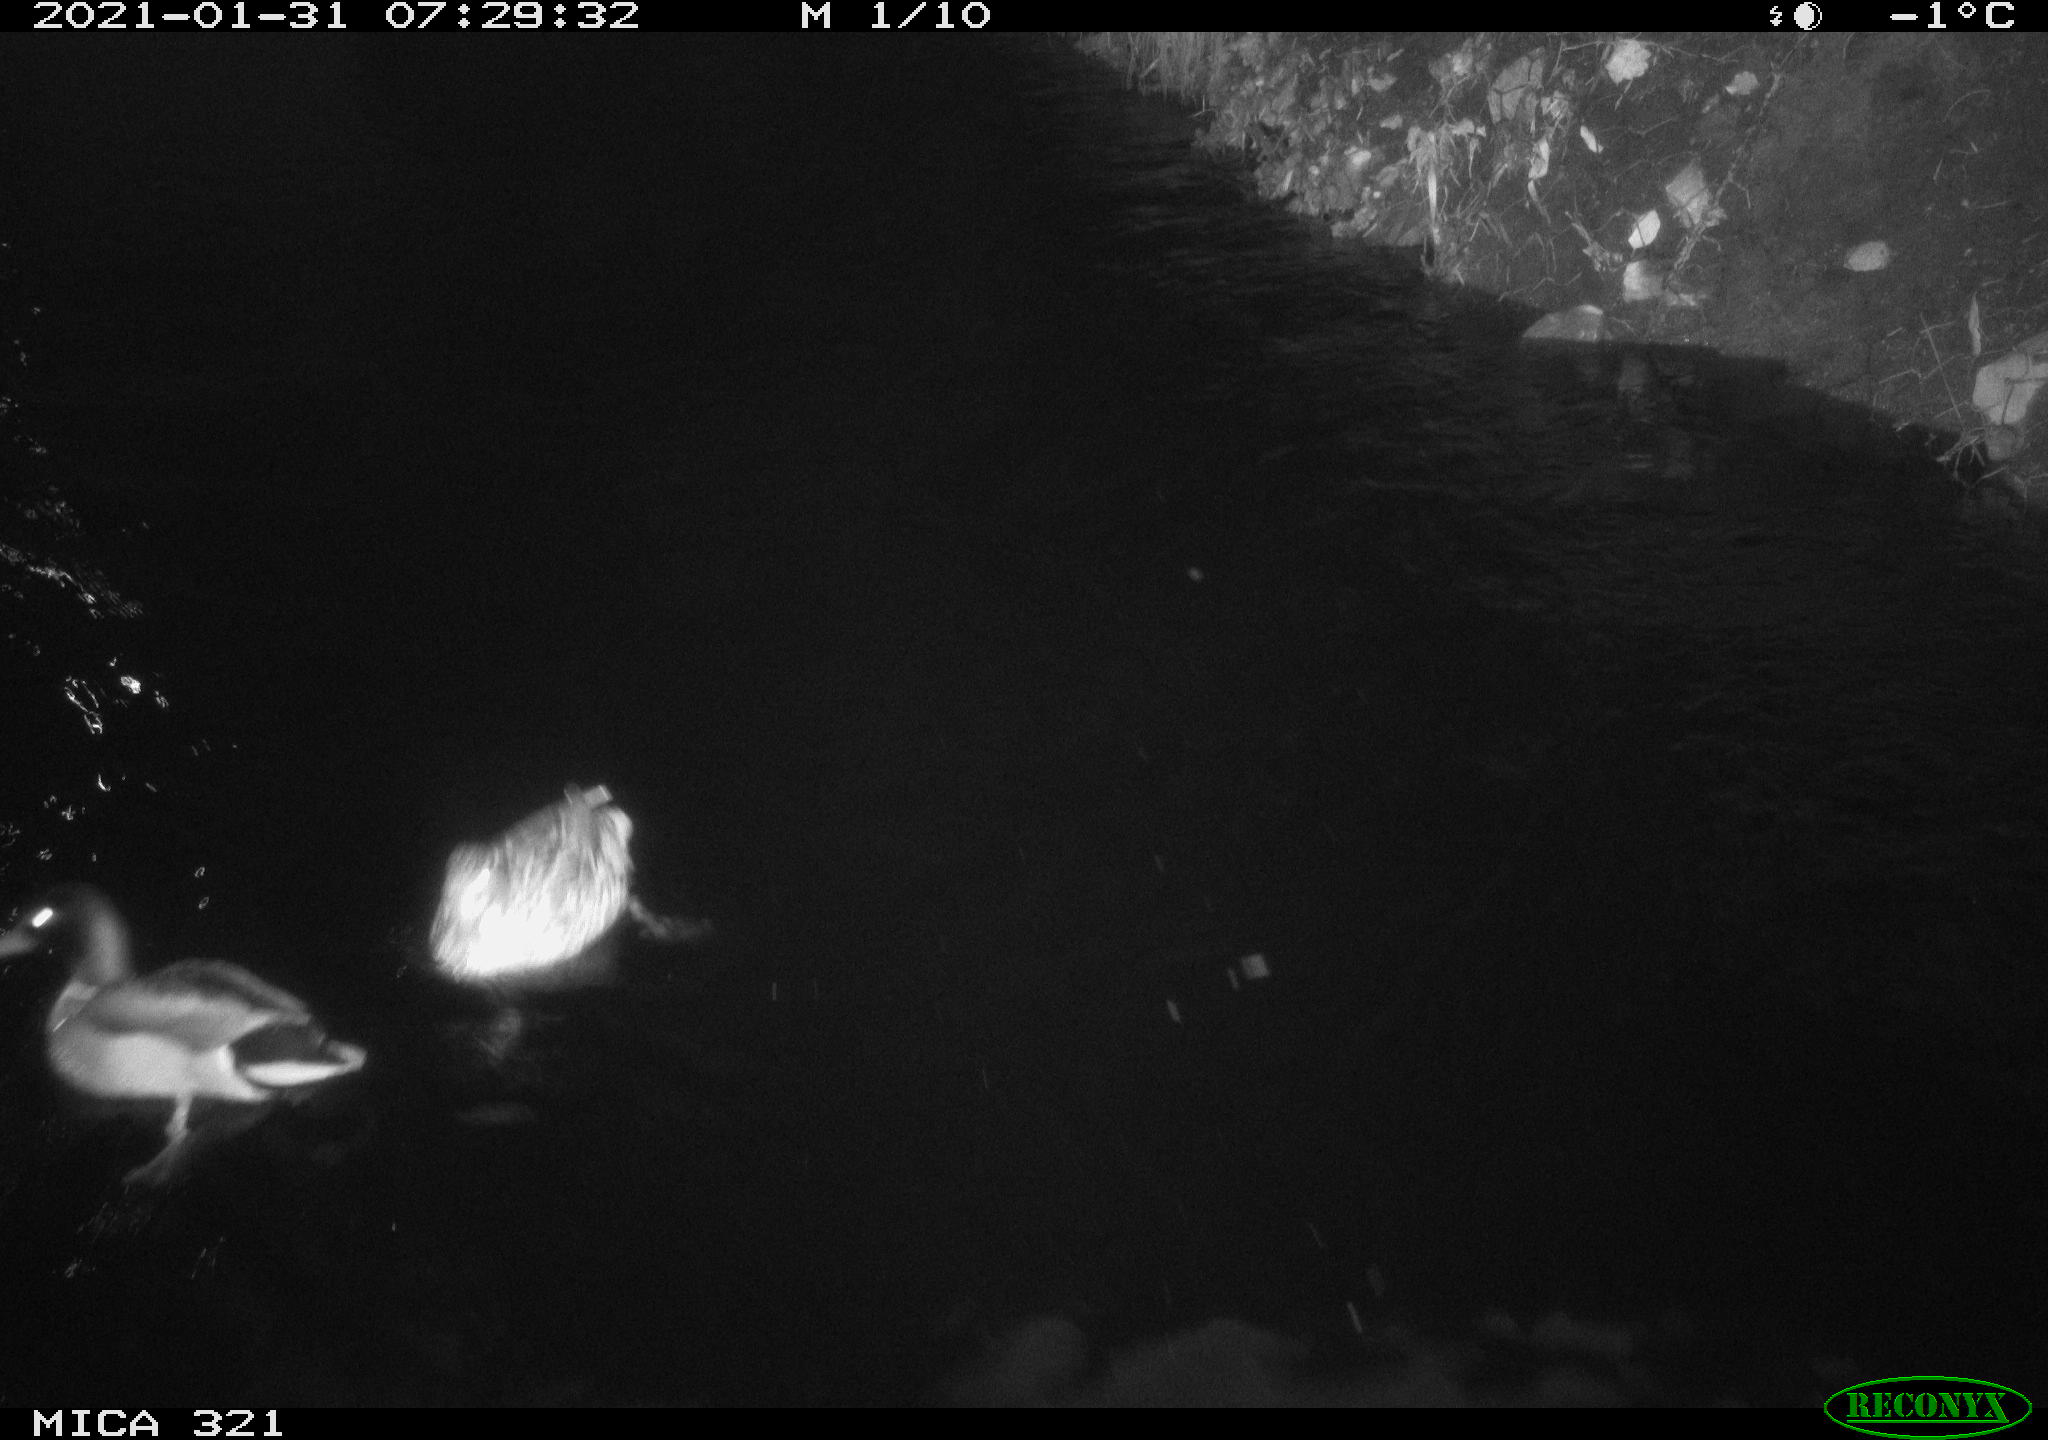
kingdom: Animalia
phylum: Chordata
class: Aves
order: Anseriformes
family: Anatidae
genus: Anas
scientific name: Anas platyrhynchos
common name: Mallard
